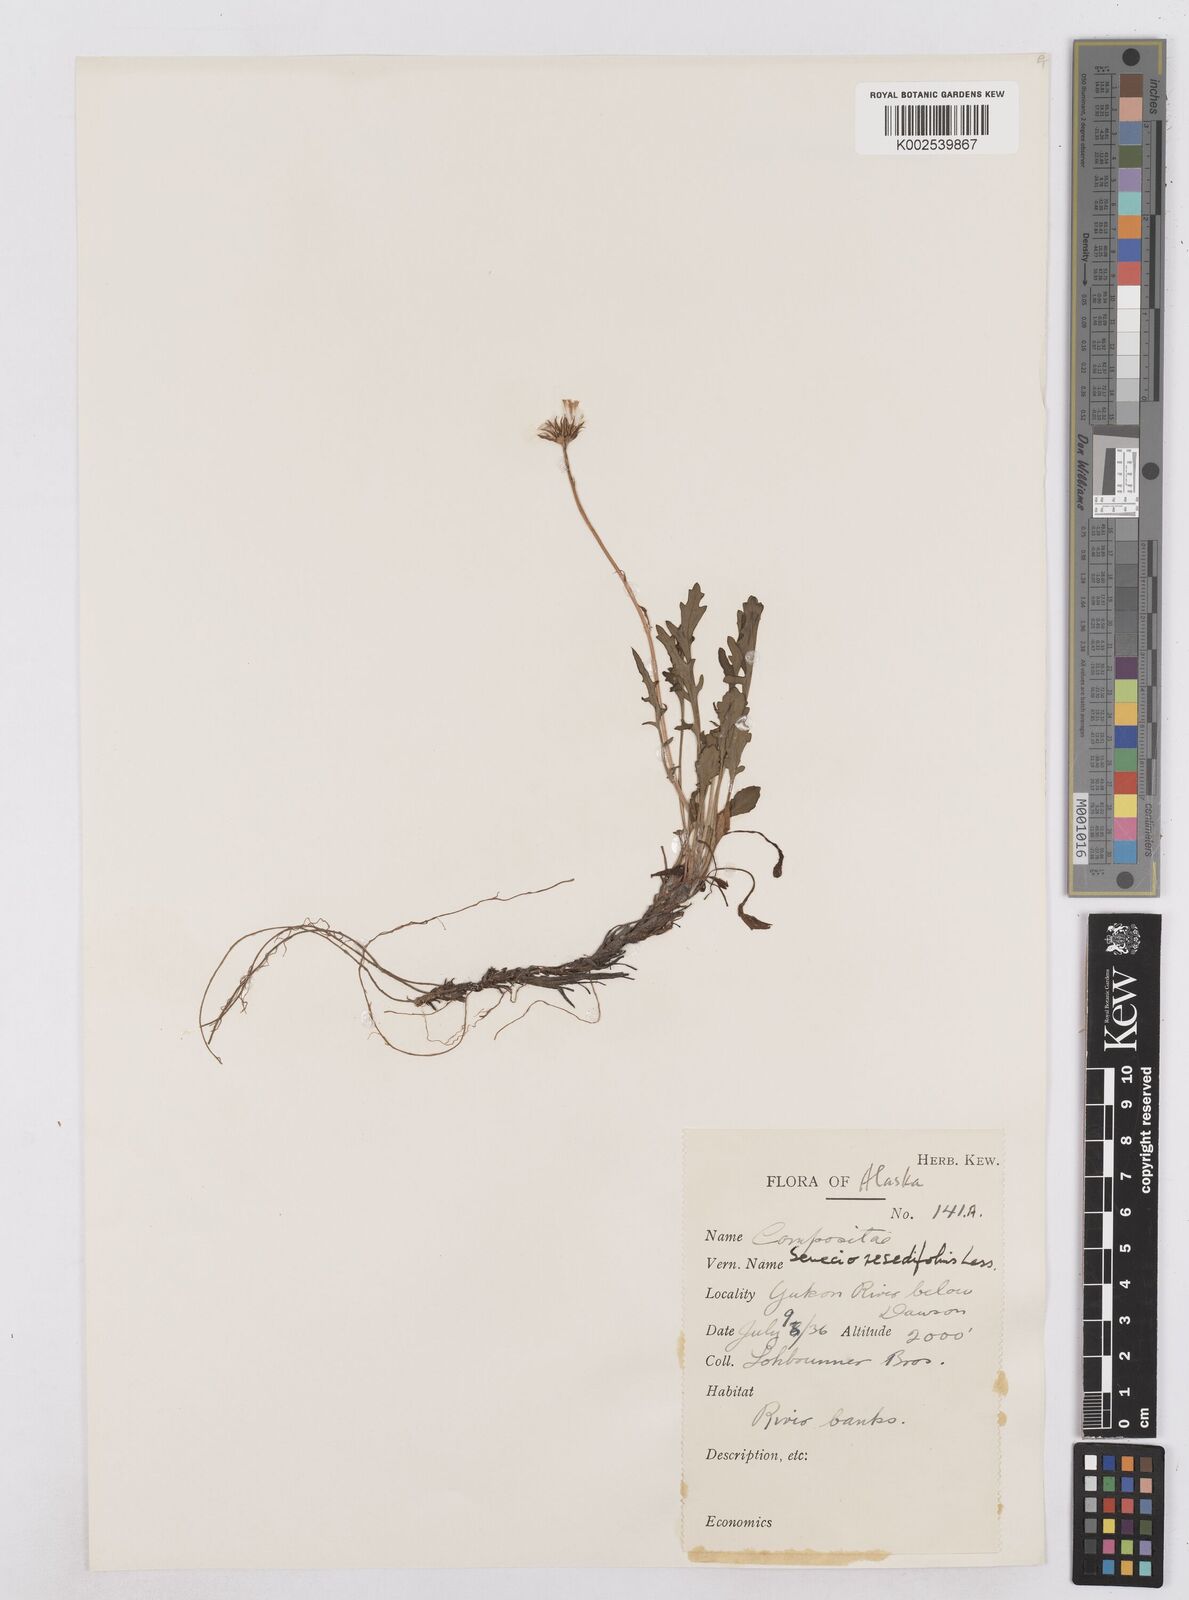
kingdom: Plantae
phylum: Tracheophyta
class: Magnoliopsida
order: Asterales
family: Asteraceae
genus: Packera
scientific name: Packera cymbalaria
